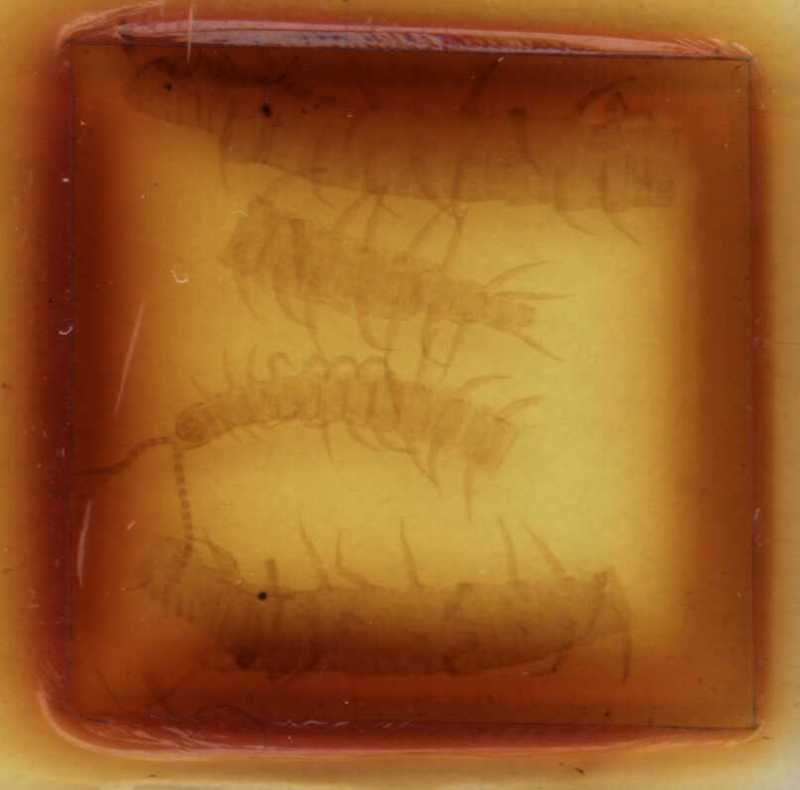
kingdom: Animalia
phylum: Arthropoda
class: Chilopoda
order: Geophilomorpha
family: Linotaeniidae
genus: Strigamia
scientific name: Strigamia engadina
